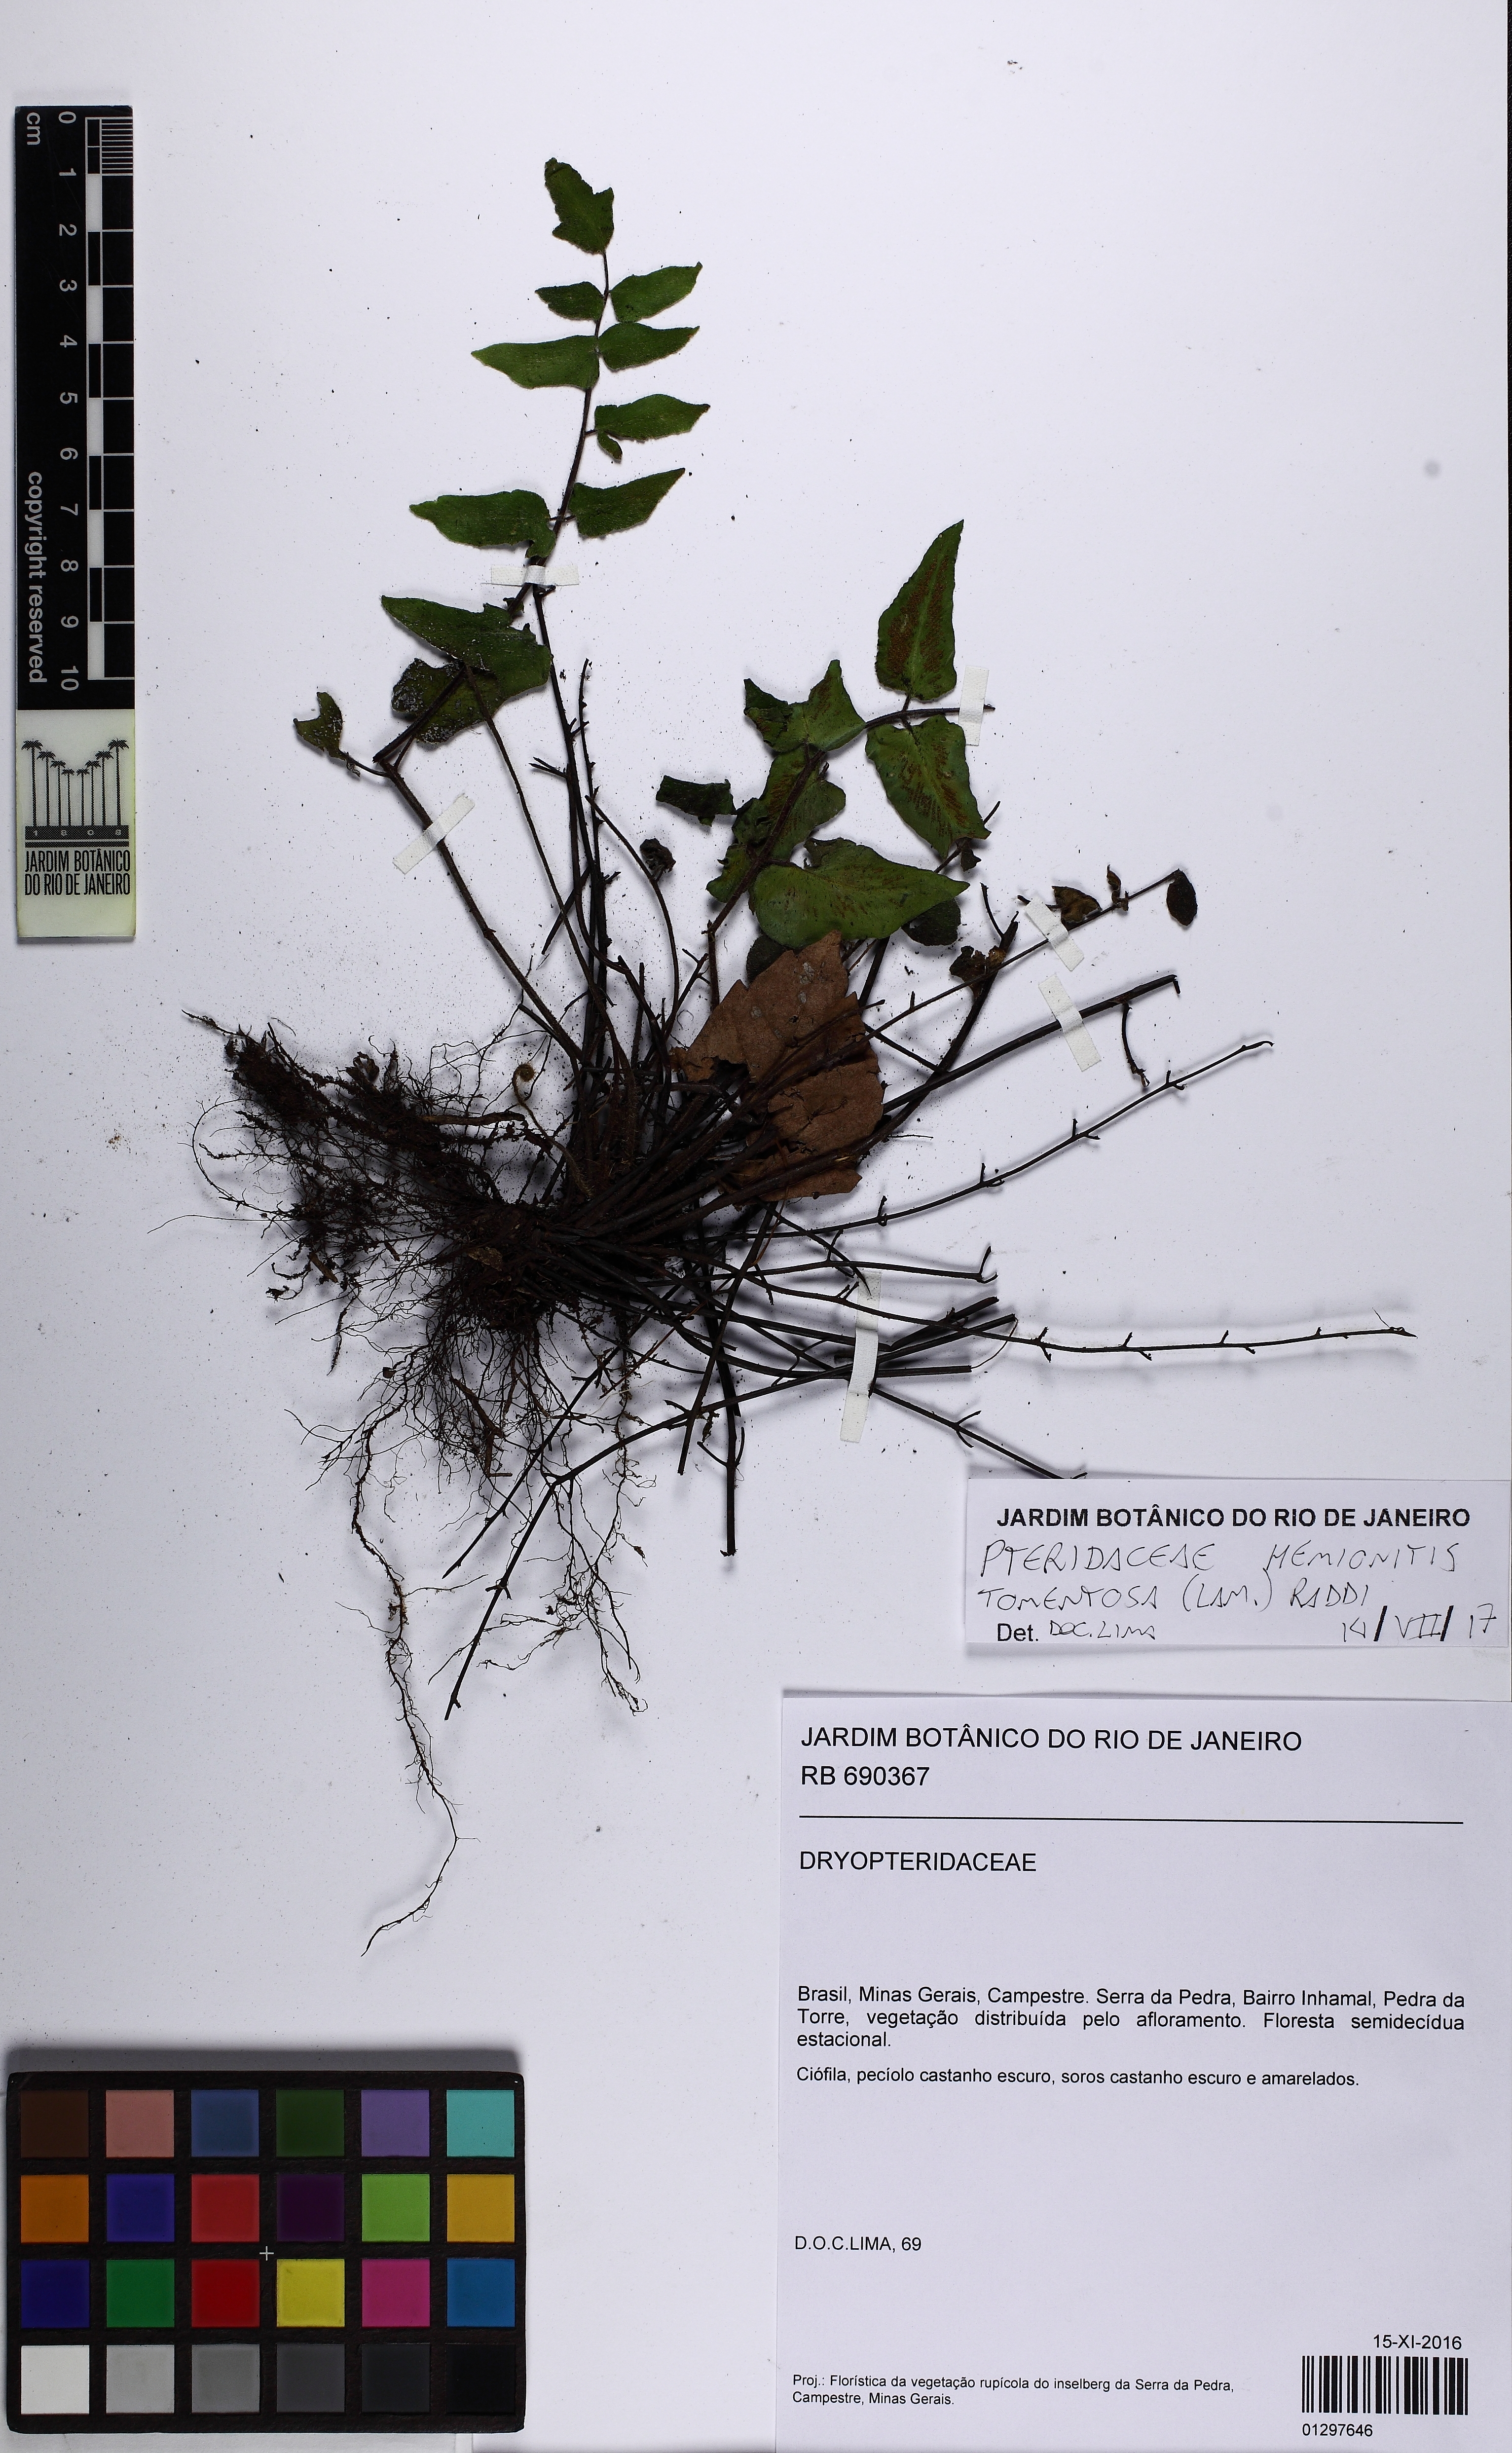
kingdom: Plantae
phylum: Tracheophyta
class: Polypodiopsida
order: Polypodiales
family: Pteridaceae
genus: Hemionitis
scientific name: Hemionitis tomentosa
